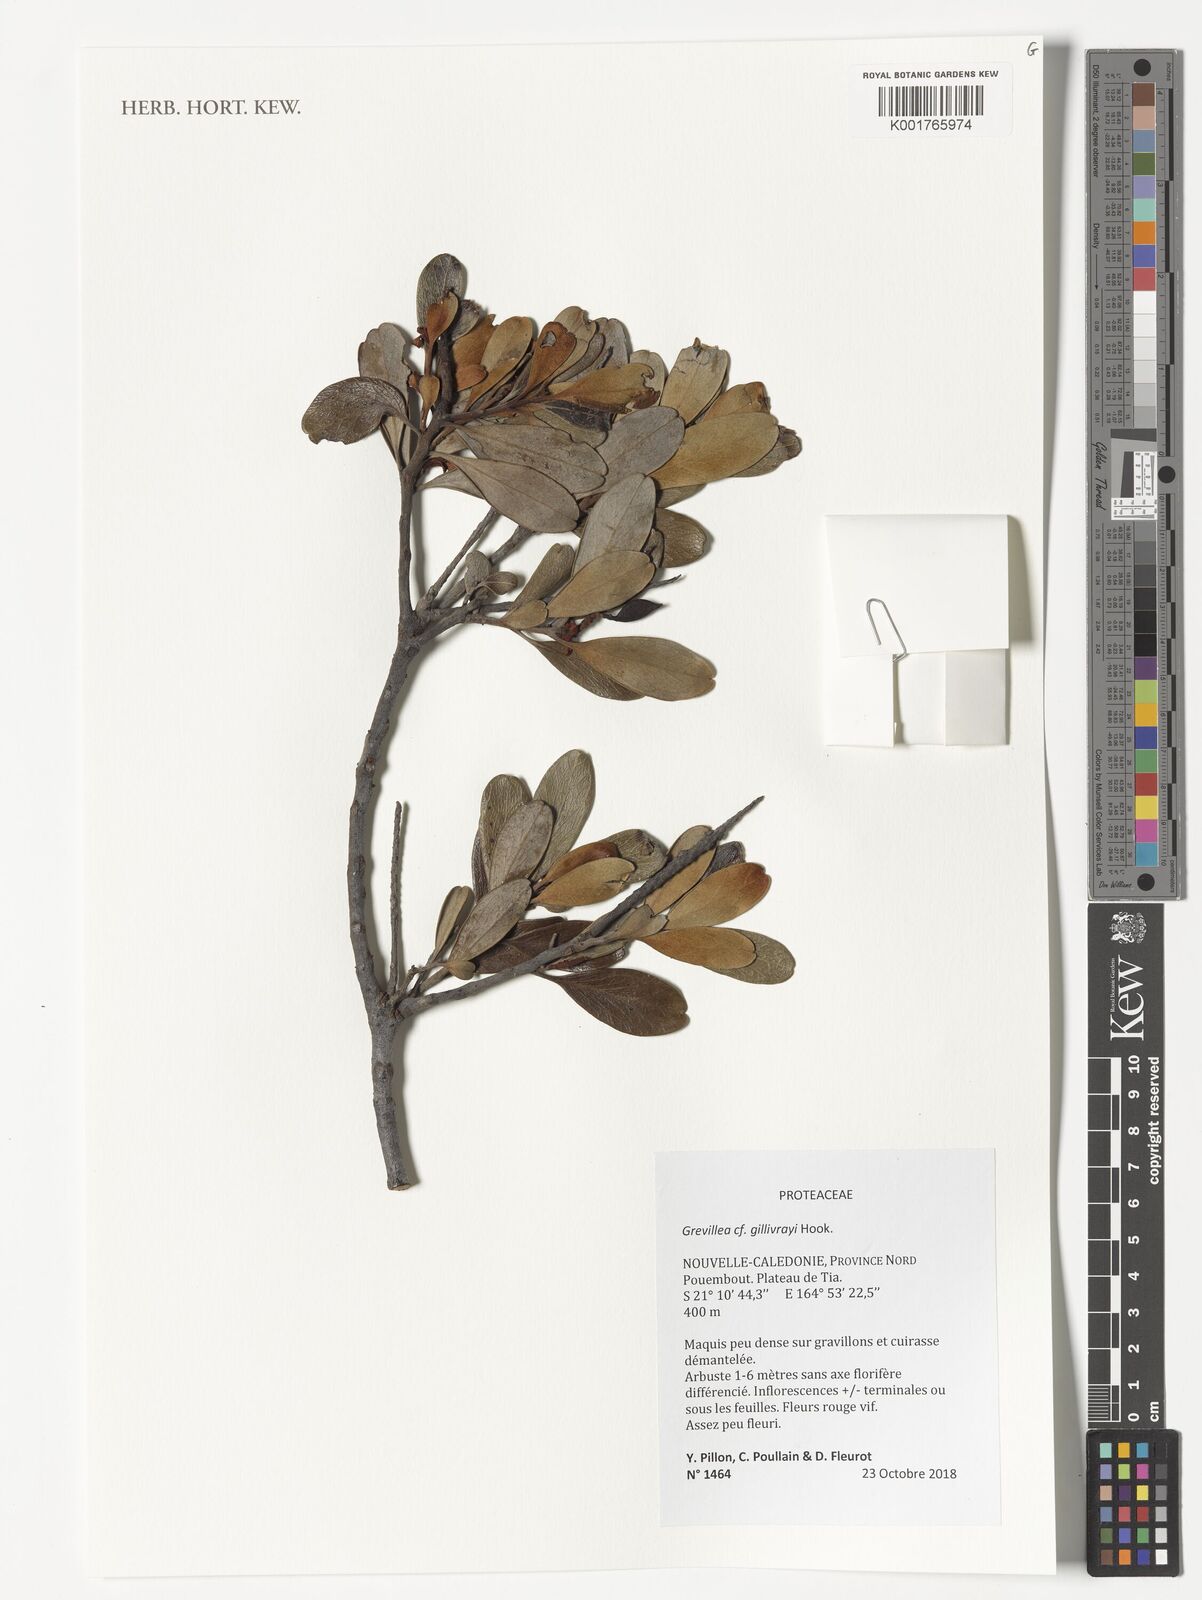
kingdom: Plantae
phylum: Tracheophyta
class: Magnoliopsida
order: Proteales
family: Proteaceae
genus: Grevillea
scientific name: Grevillea gillivrayi
